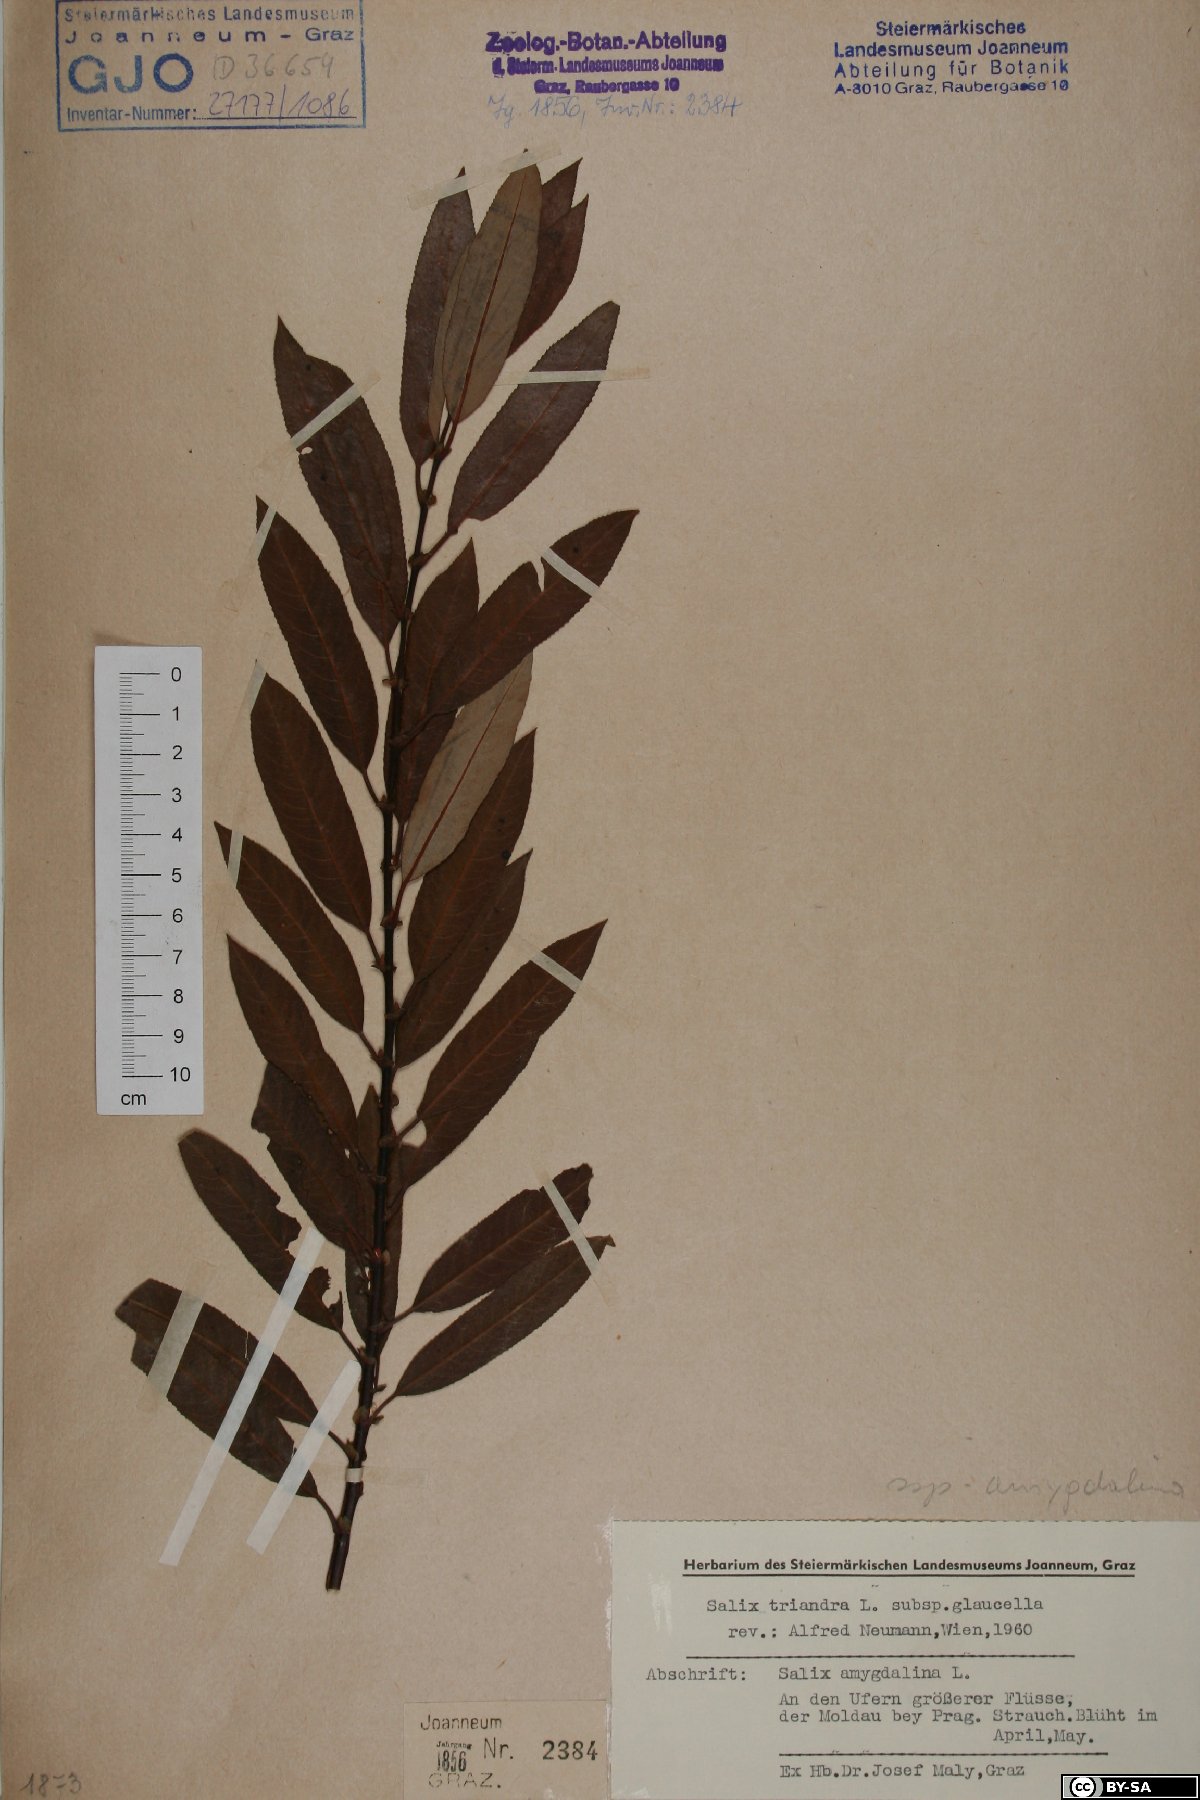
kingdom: Plantae
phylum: Tracheophyta
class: Magnoliopsida
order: Malpighiales
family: Salicaceae
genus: Salix
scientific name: Salix triandra
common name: Almond willow
